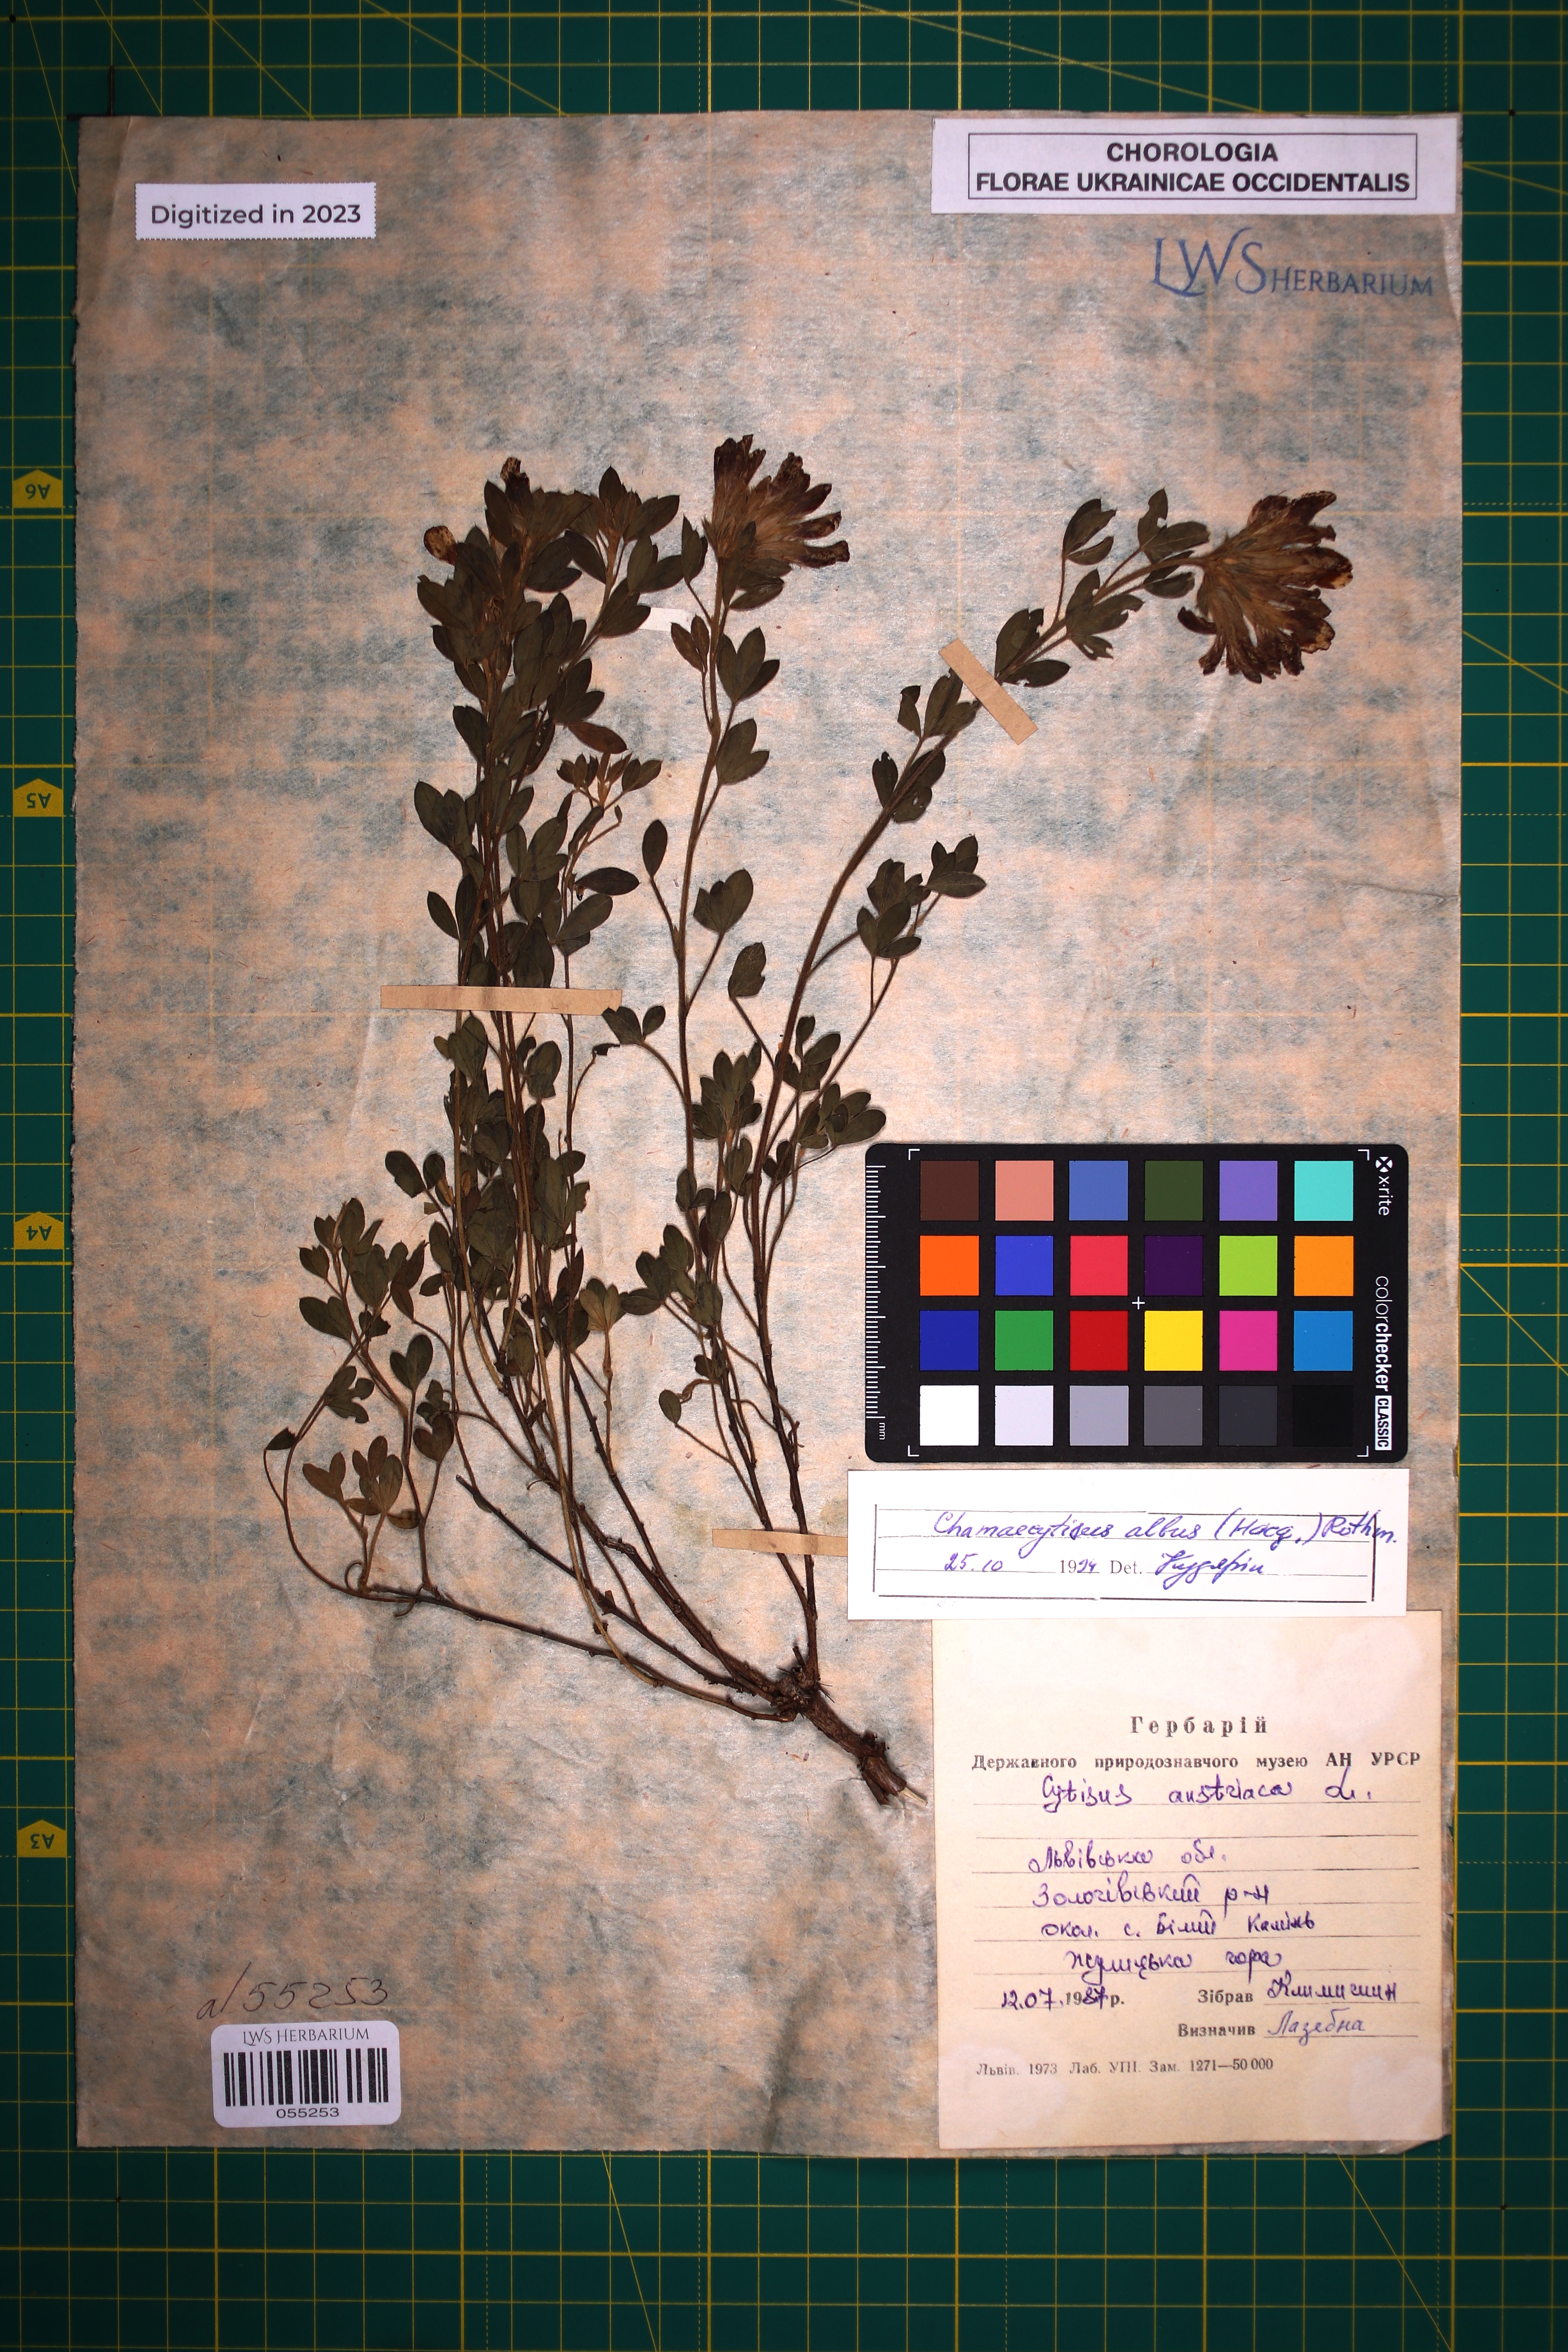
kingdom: Plantae
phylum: Tracheophyta
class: Magnoliopsida
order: Fabales
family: Fabaceae
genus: Chamaecytisus
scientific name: Chamaecytisus albus
